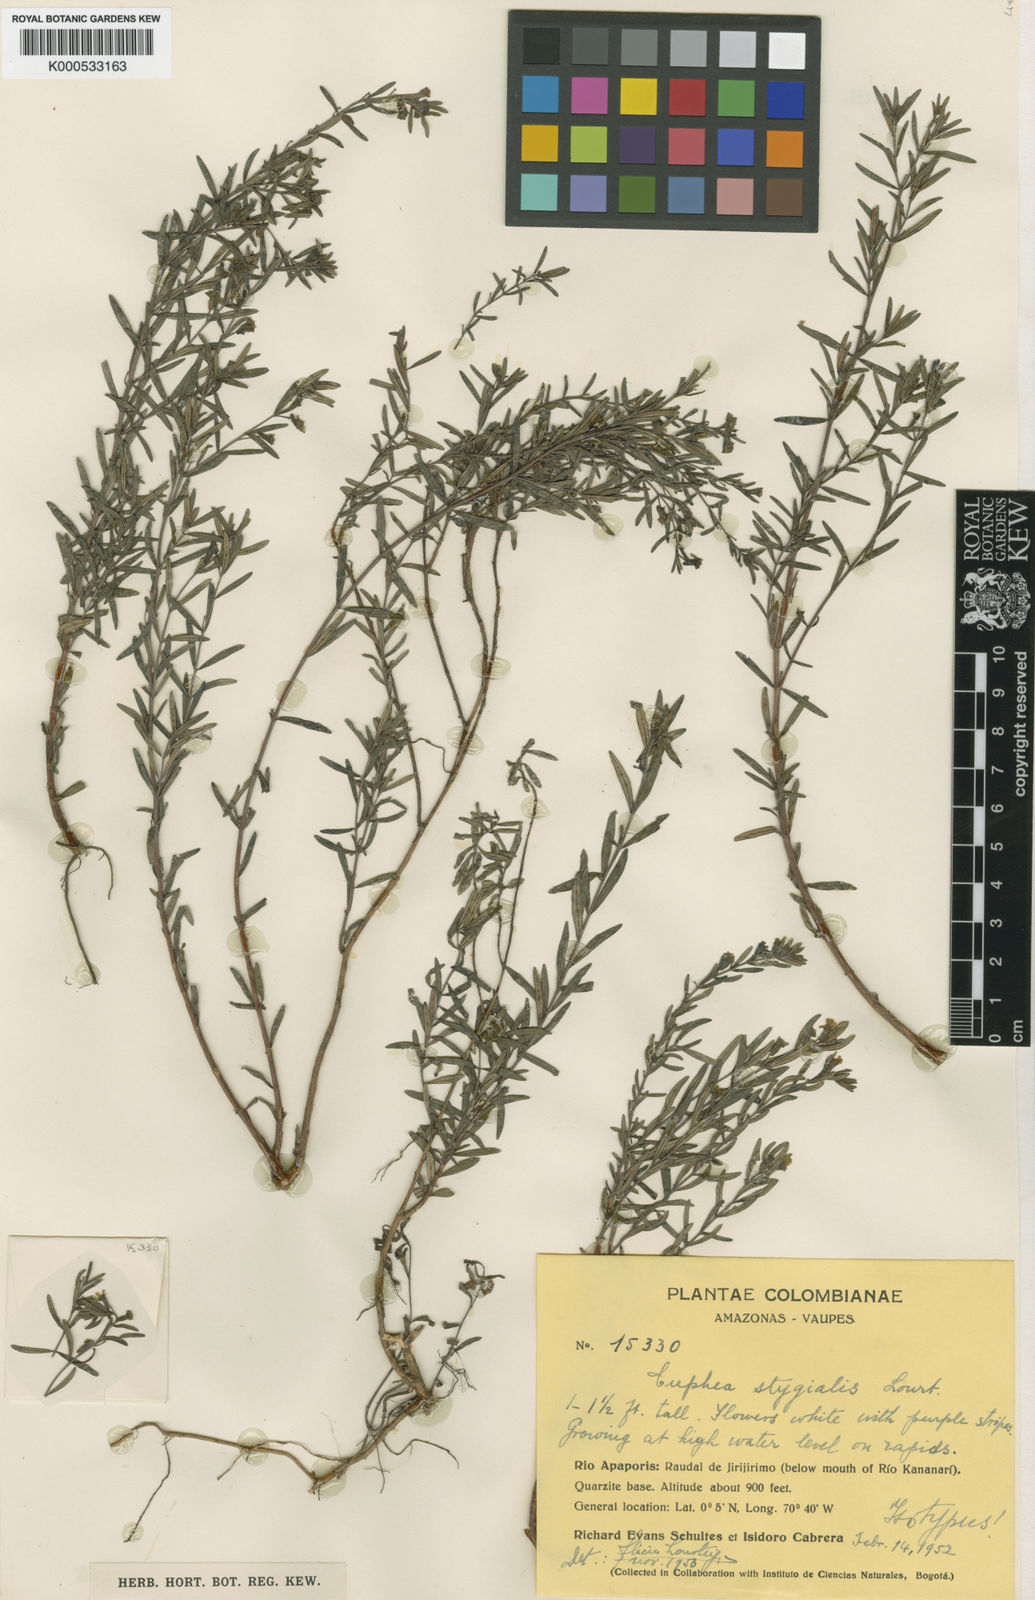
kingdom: Plantae
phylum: Tracheophyta
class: Magnoliopsida
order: Myrtales
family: Lythraceae
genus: Cuphea
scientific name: Cuphea stygialis
